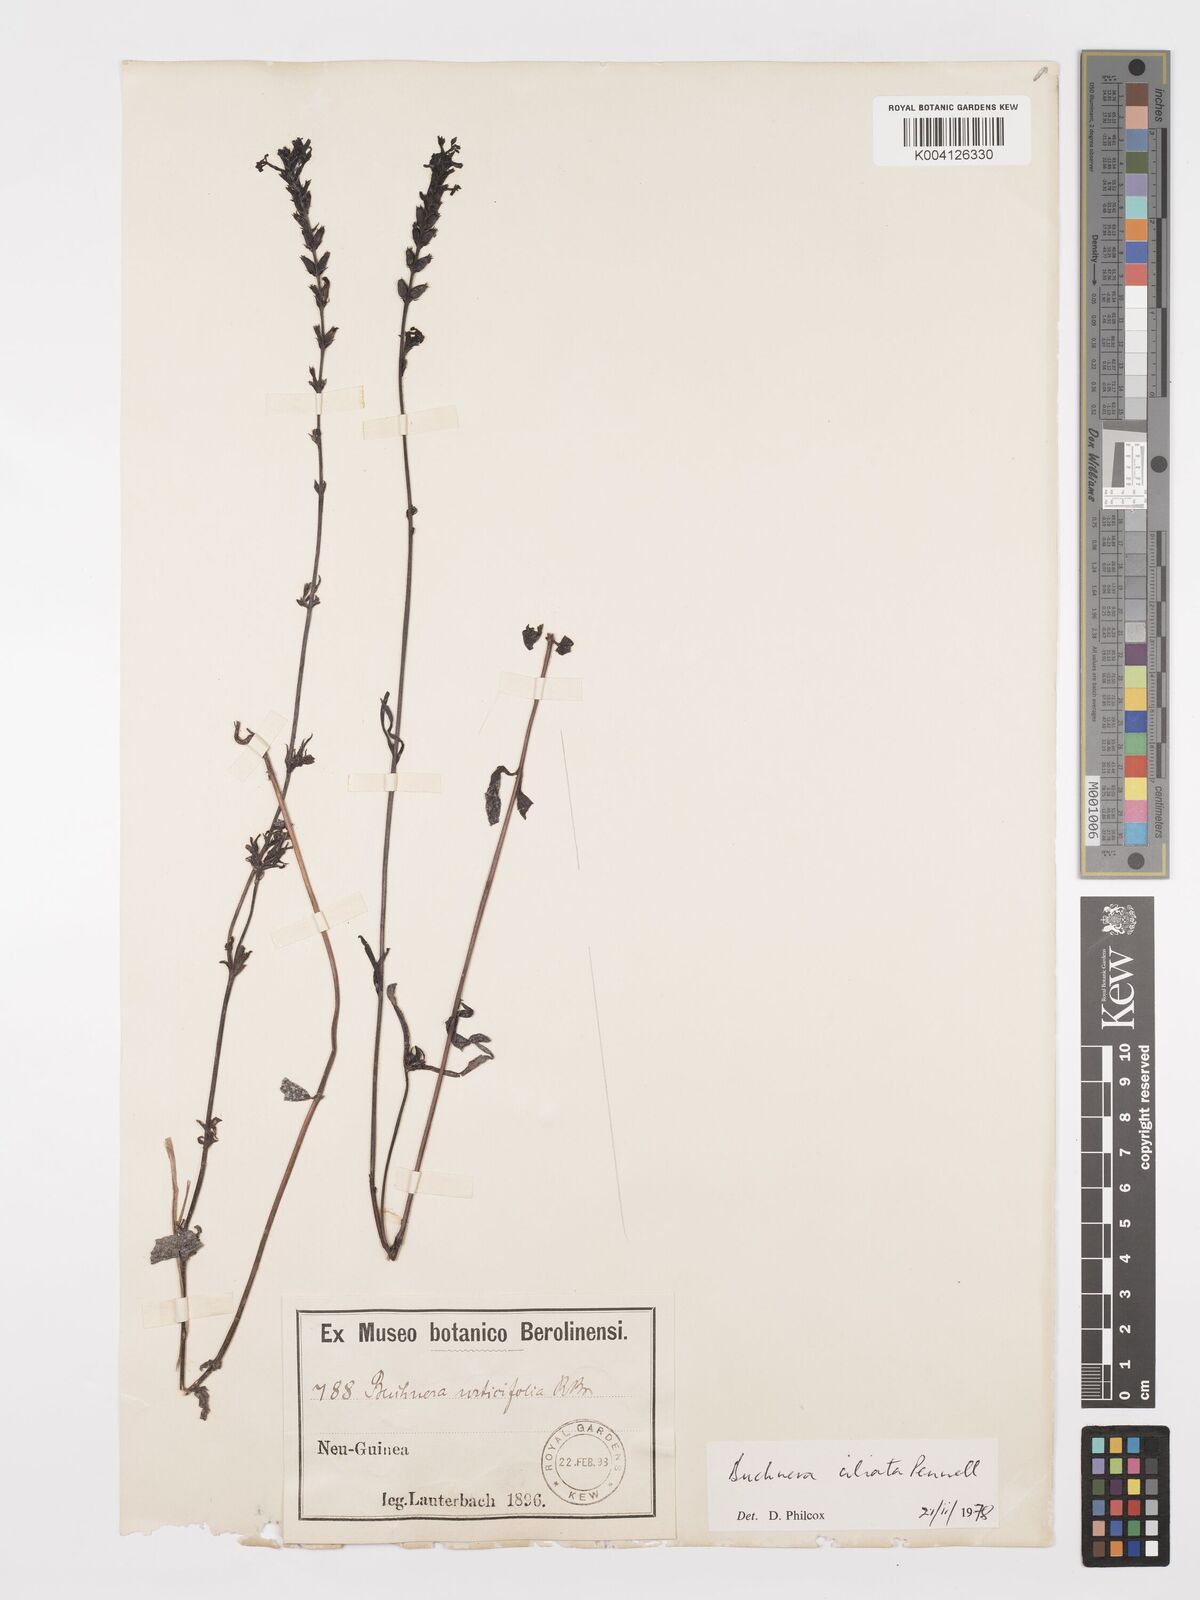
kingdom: Plantae
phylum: Tracheophyta
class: Magnoliopsida
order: Lamiales
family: Orobanchaceae
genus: Buchnera
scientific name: Buchnera ciliata
